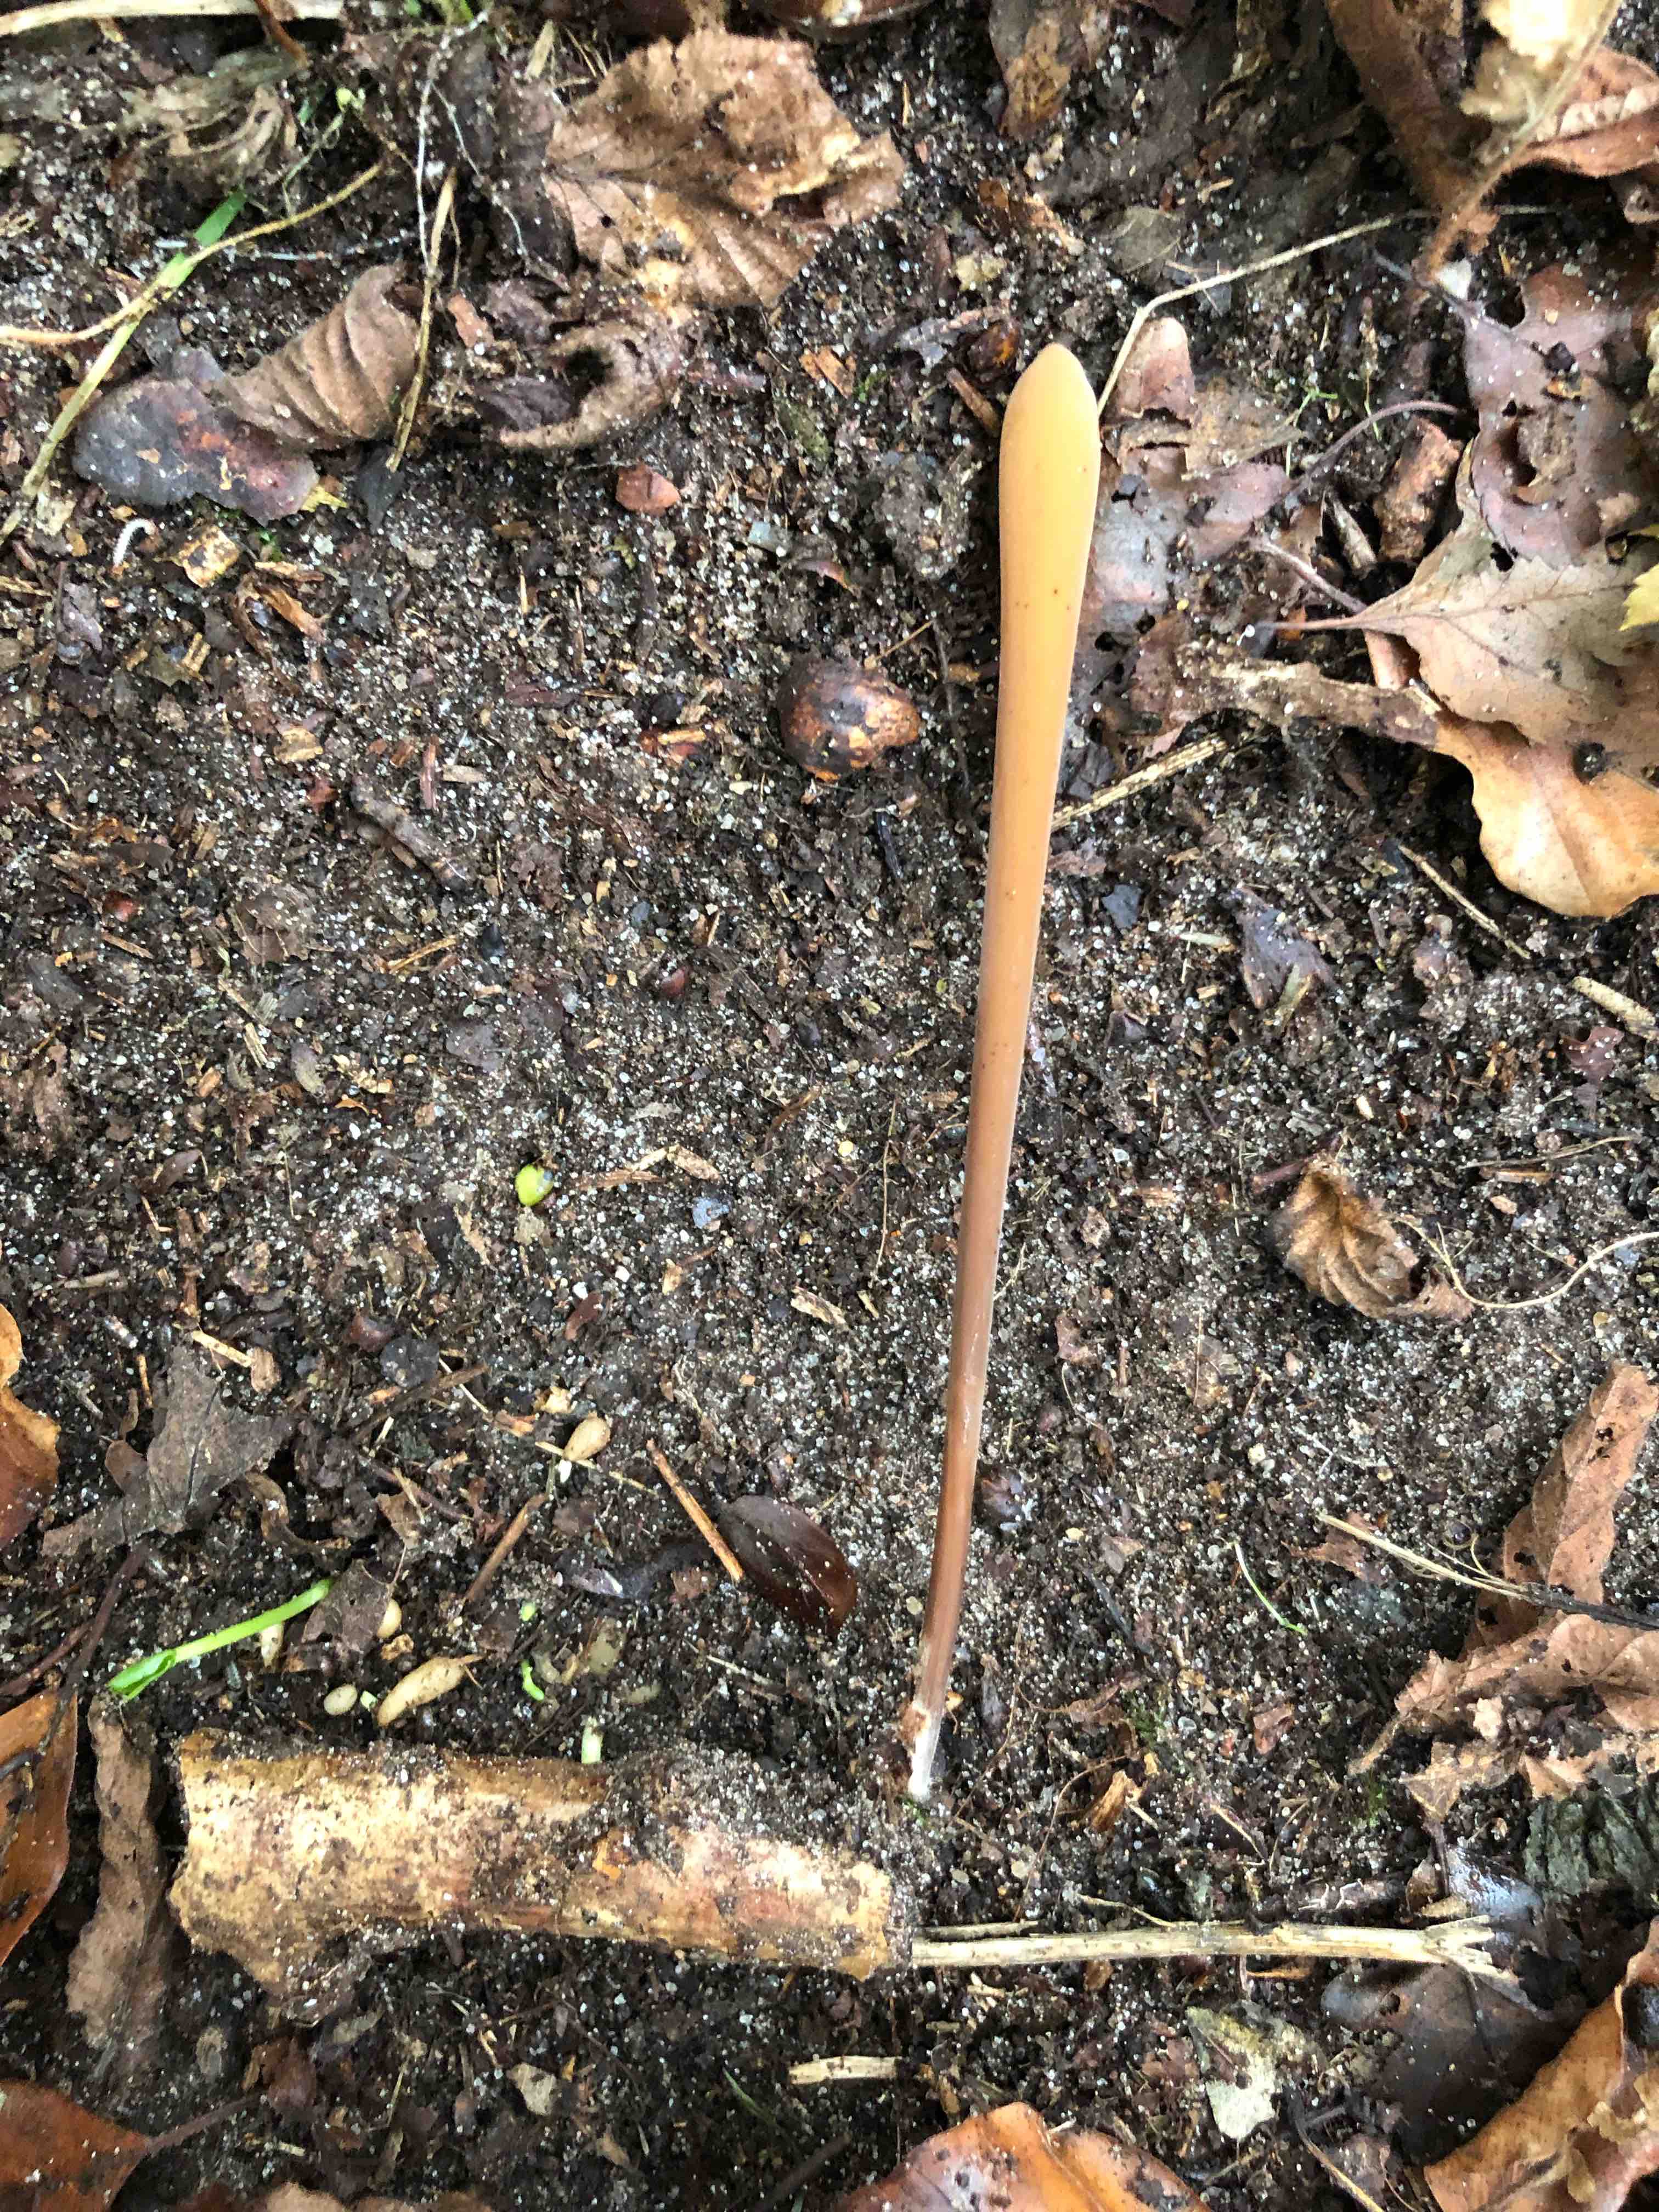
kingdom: Fungi
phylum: Basidiomycota
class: Agaricomycetes
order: Agaricales
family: Typhulaceae
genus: Typhula
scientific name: Typhula fistulosa
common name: pibet rørkølle
